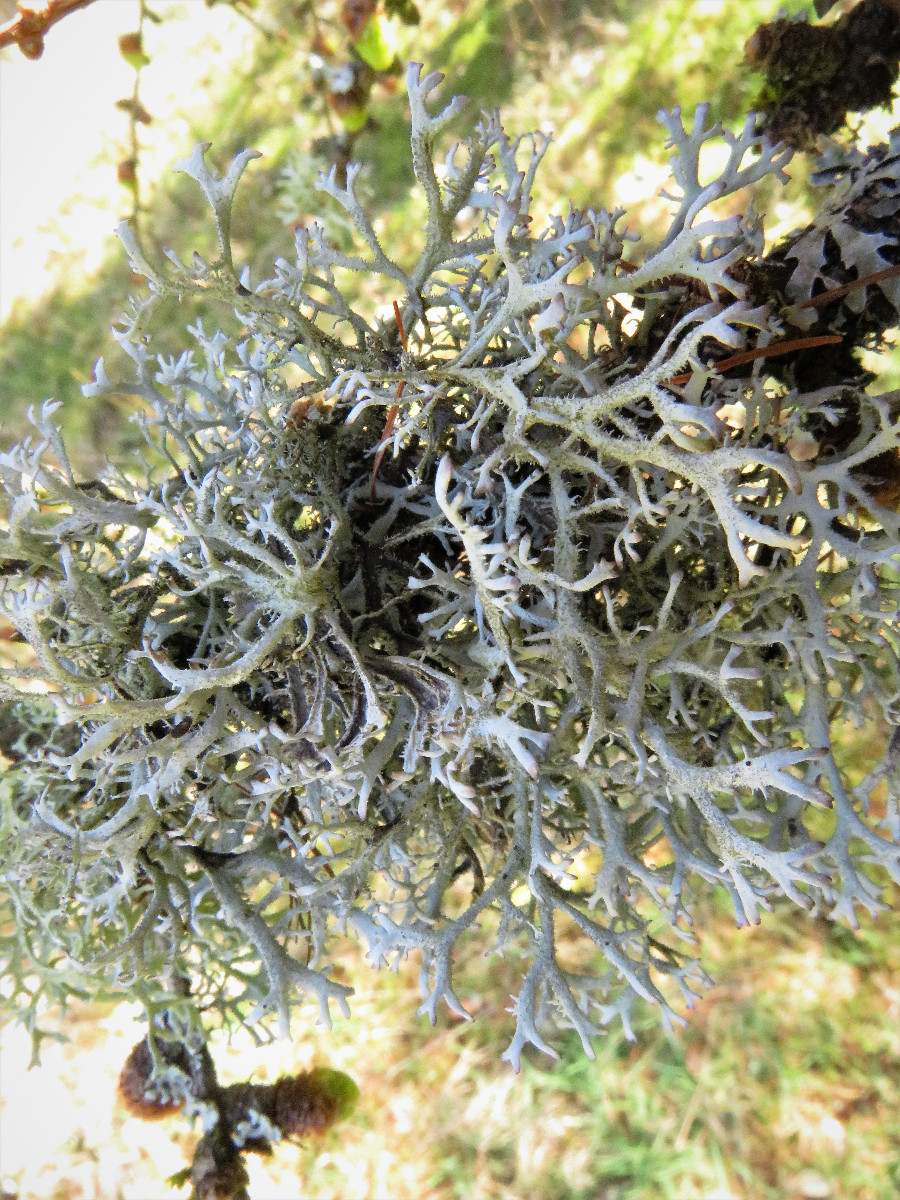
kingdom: Fungi
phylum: Ascomycota
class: Lecanoromycetes
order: Lecanorales
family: Parmeliaceae
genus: Pseudevernia
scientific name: Pseudevernia furfuracea
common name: grå fyrrelav
